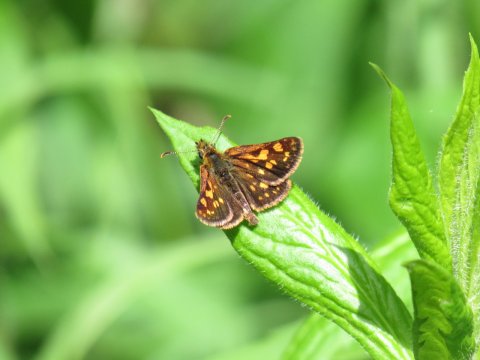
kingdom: Animalia
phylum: Arthropoda
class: Insecta
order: Lepidoptera
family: Hesperiidae
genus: Carterocephalus
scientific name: Carterocephalus palaemon
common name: Chequered Skipper
